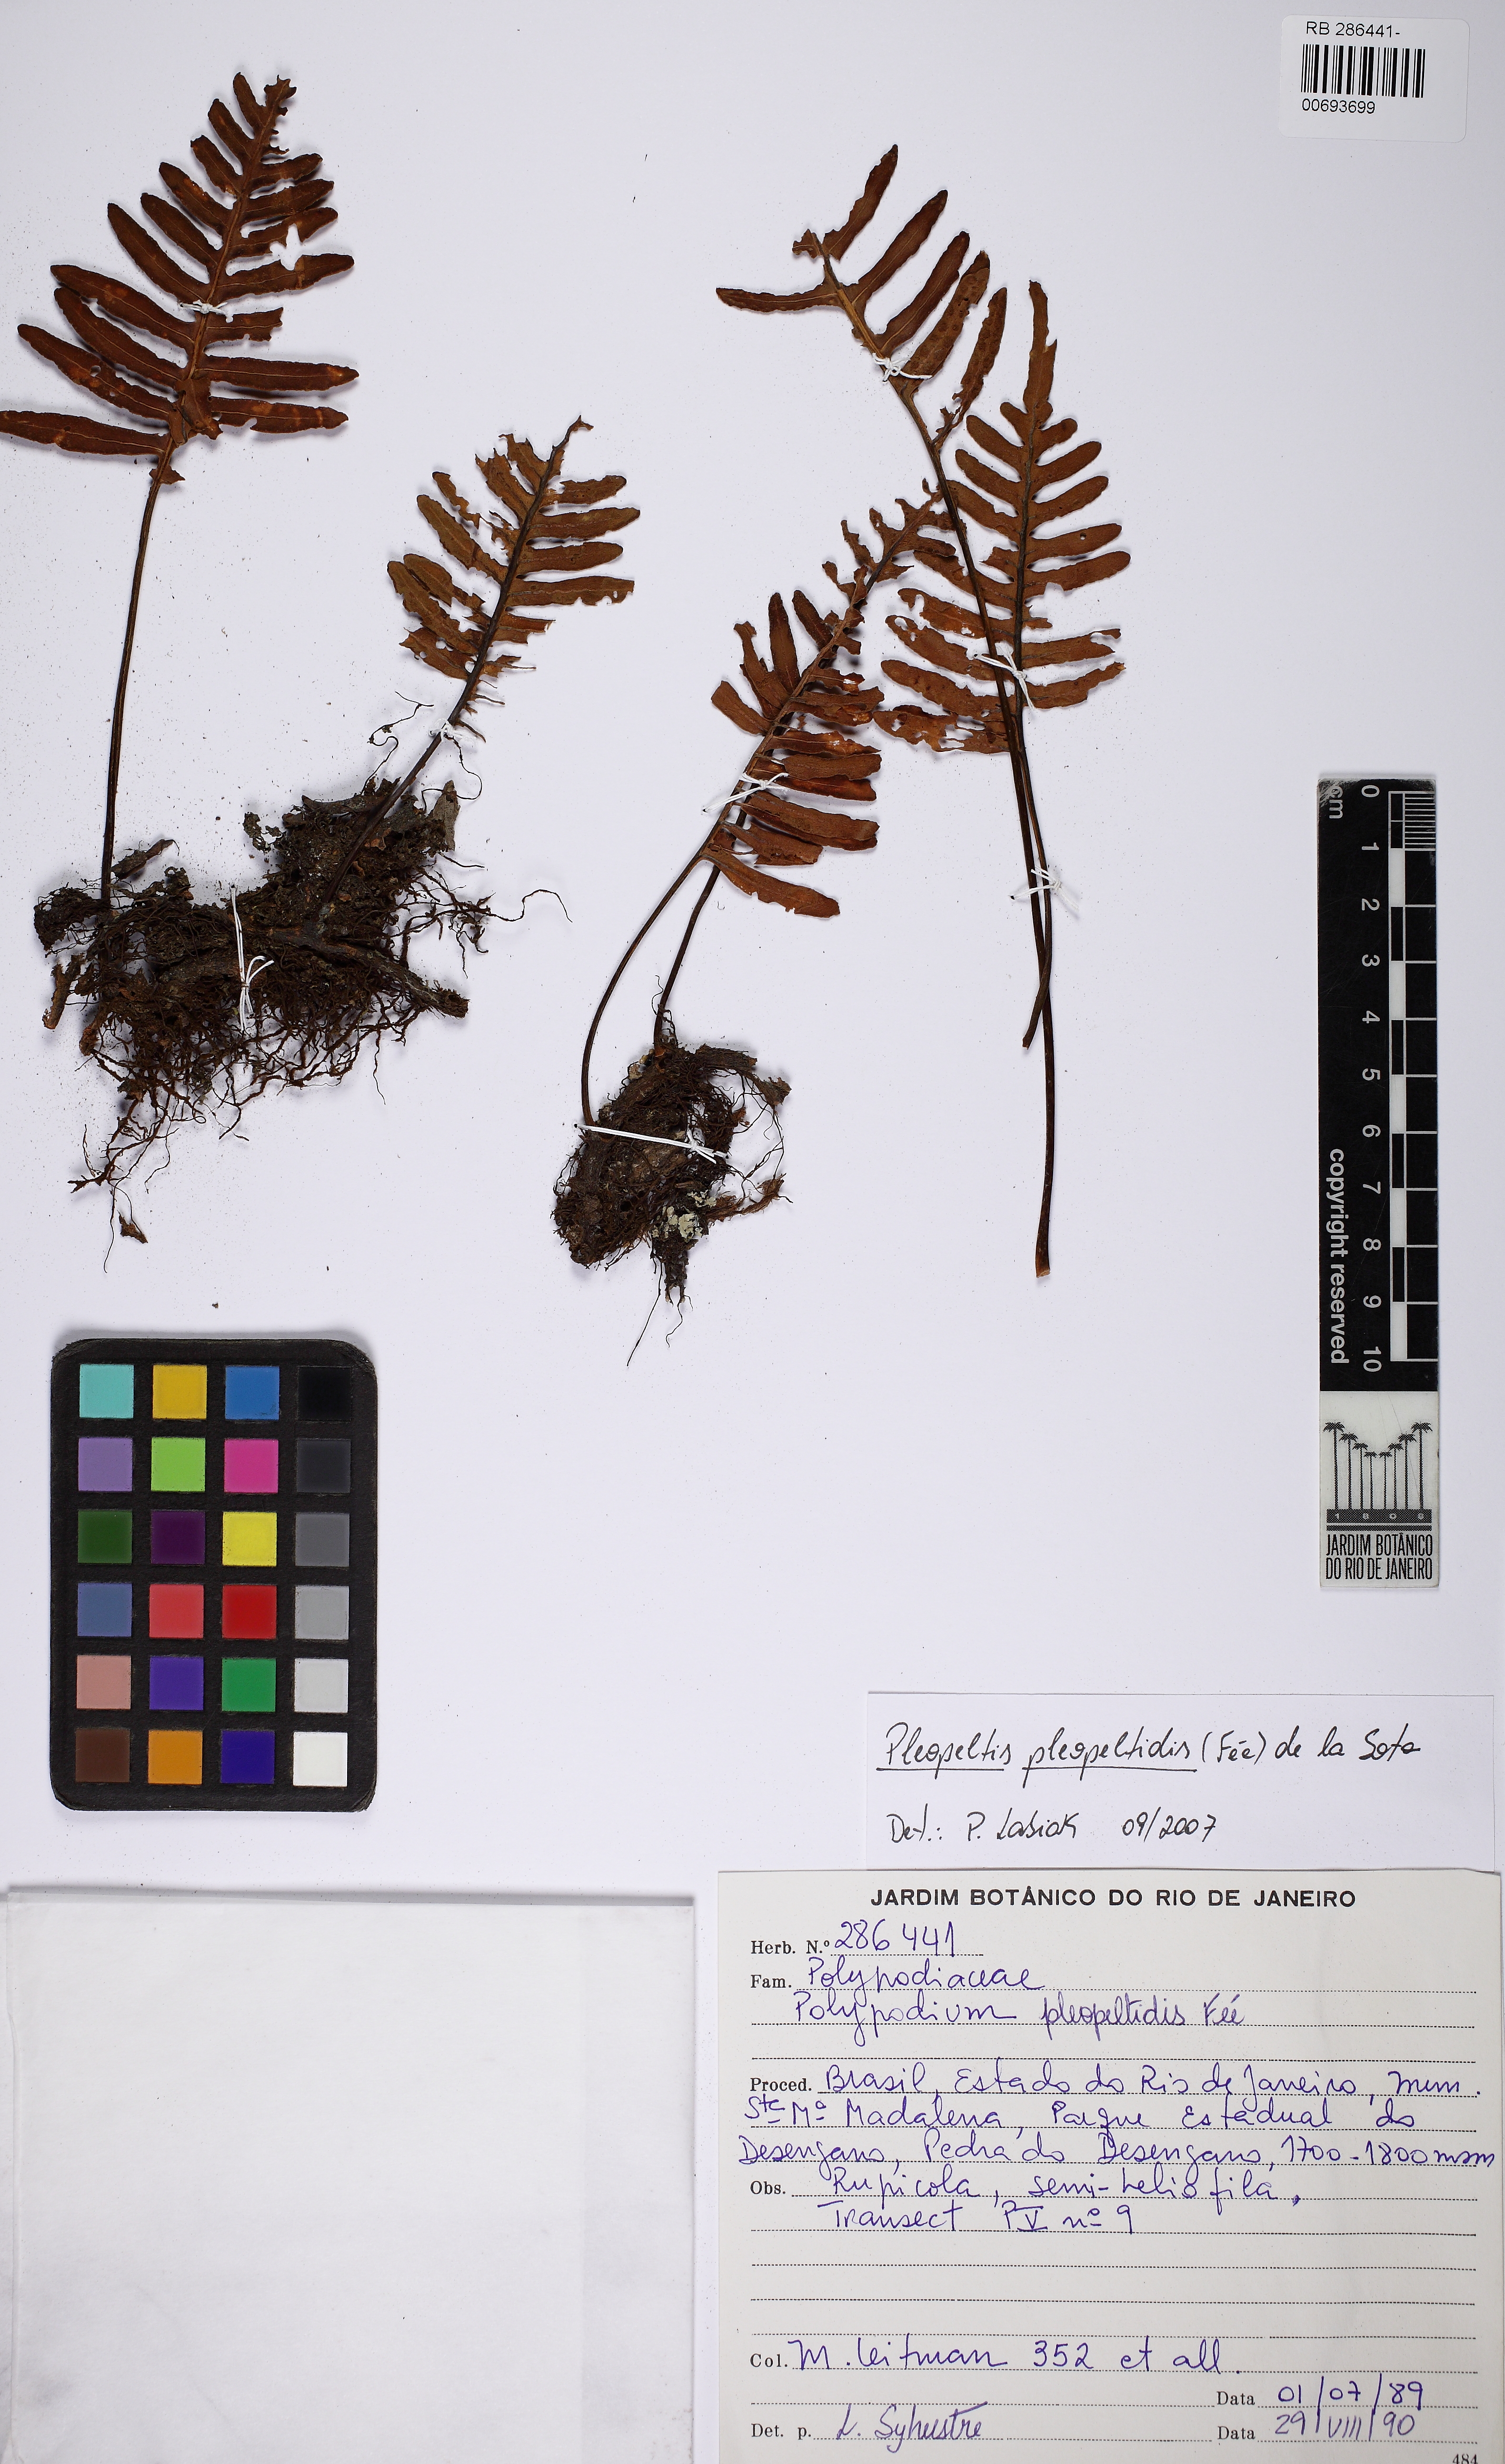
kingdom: Plantae
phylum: Tracheophyta
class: Polypodiopsida
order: Polypodiales
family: Polypodiaceae
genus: Pleopeltis
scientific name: Pleopeltis pleopeltidis
